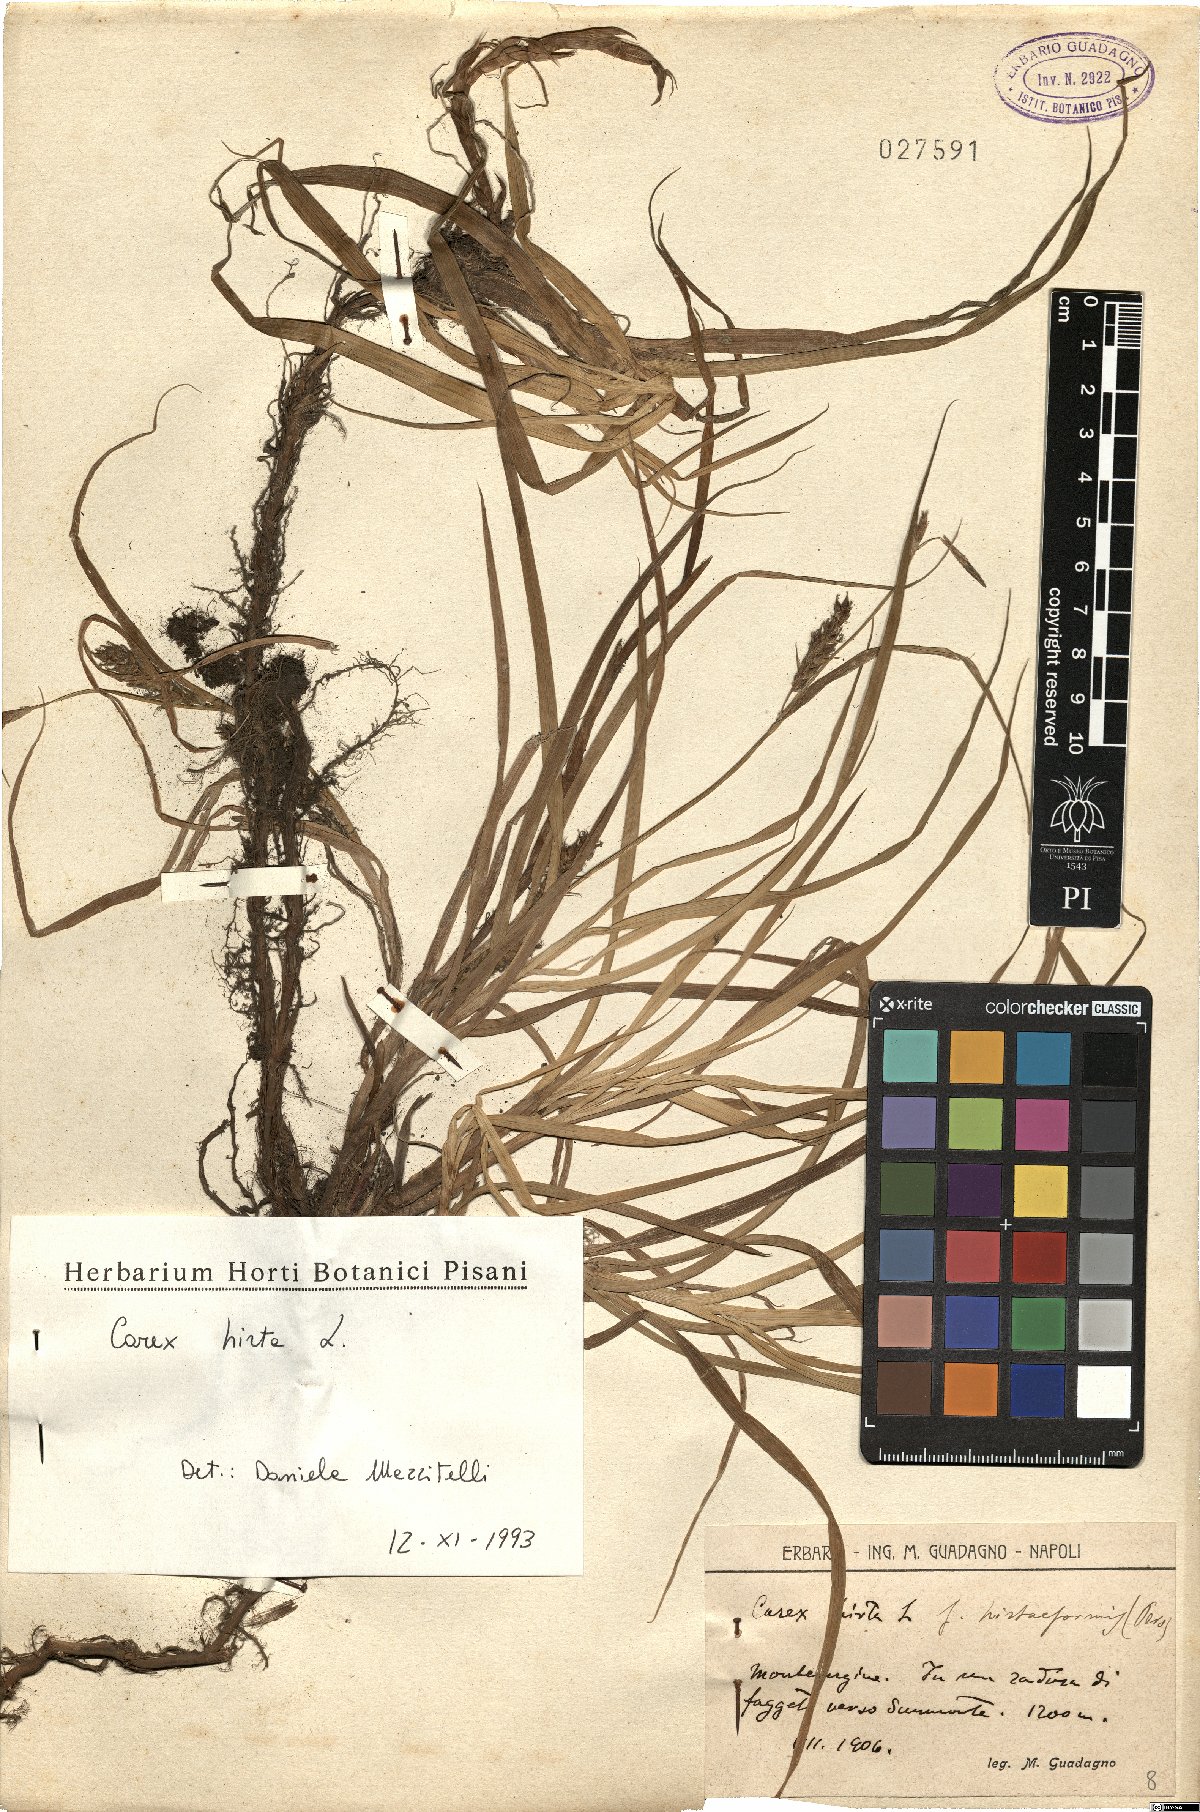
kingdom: Plantae
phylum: Tracheophyta
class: Liliopsida
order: Poales
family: Cyperaceae
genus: Carex
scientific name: Carex hirta
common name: Hairy sedge
